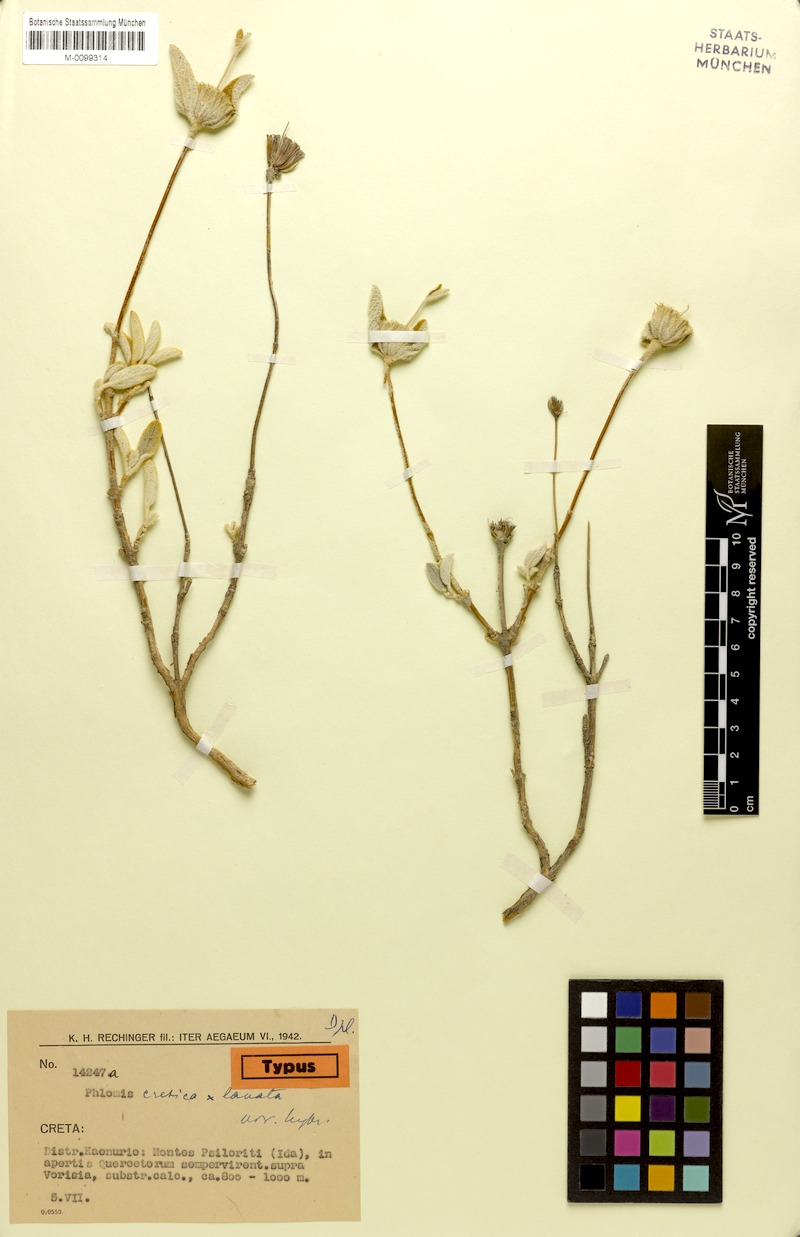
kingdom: Plantae
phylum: Tracheophyta
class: Magnoliopsida
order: Lamiales
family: Lamiaceae
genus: Phlomis
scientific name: Phlomis commixta
